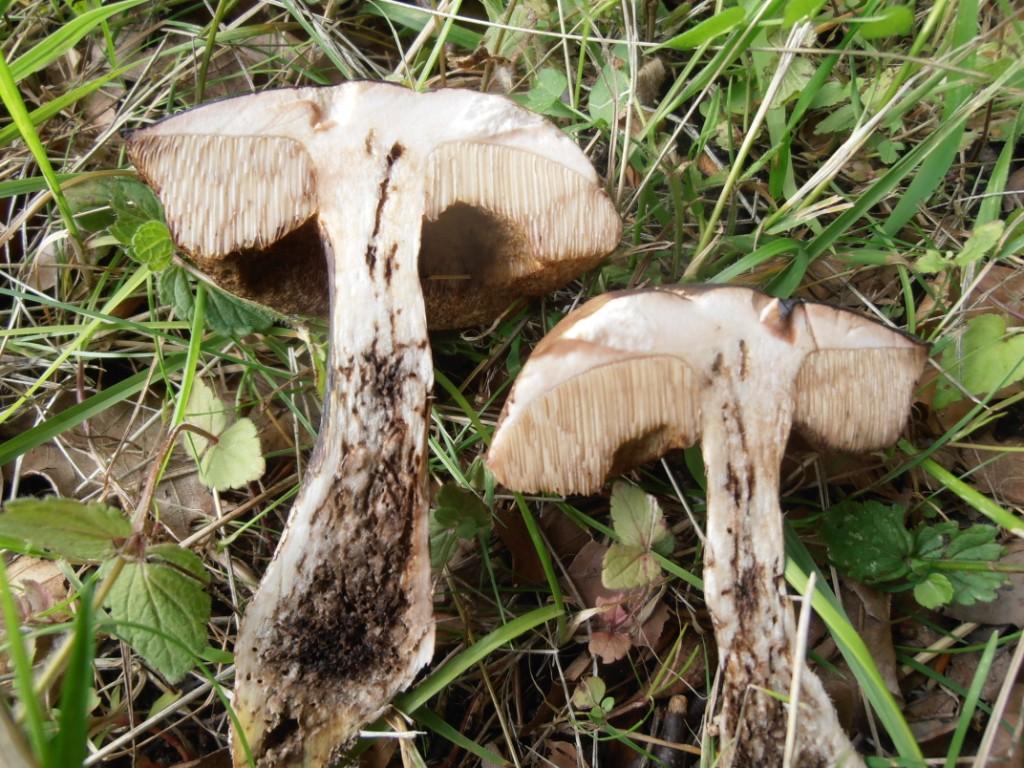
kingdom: Fungi
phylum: Basidiomycota
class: Agaricomycetes
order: Boletales
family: Boletaceae
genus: Leccinellum
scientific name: Leccinellum pseudoscabrum
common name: avnbøg-skælrørhat
